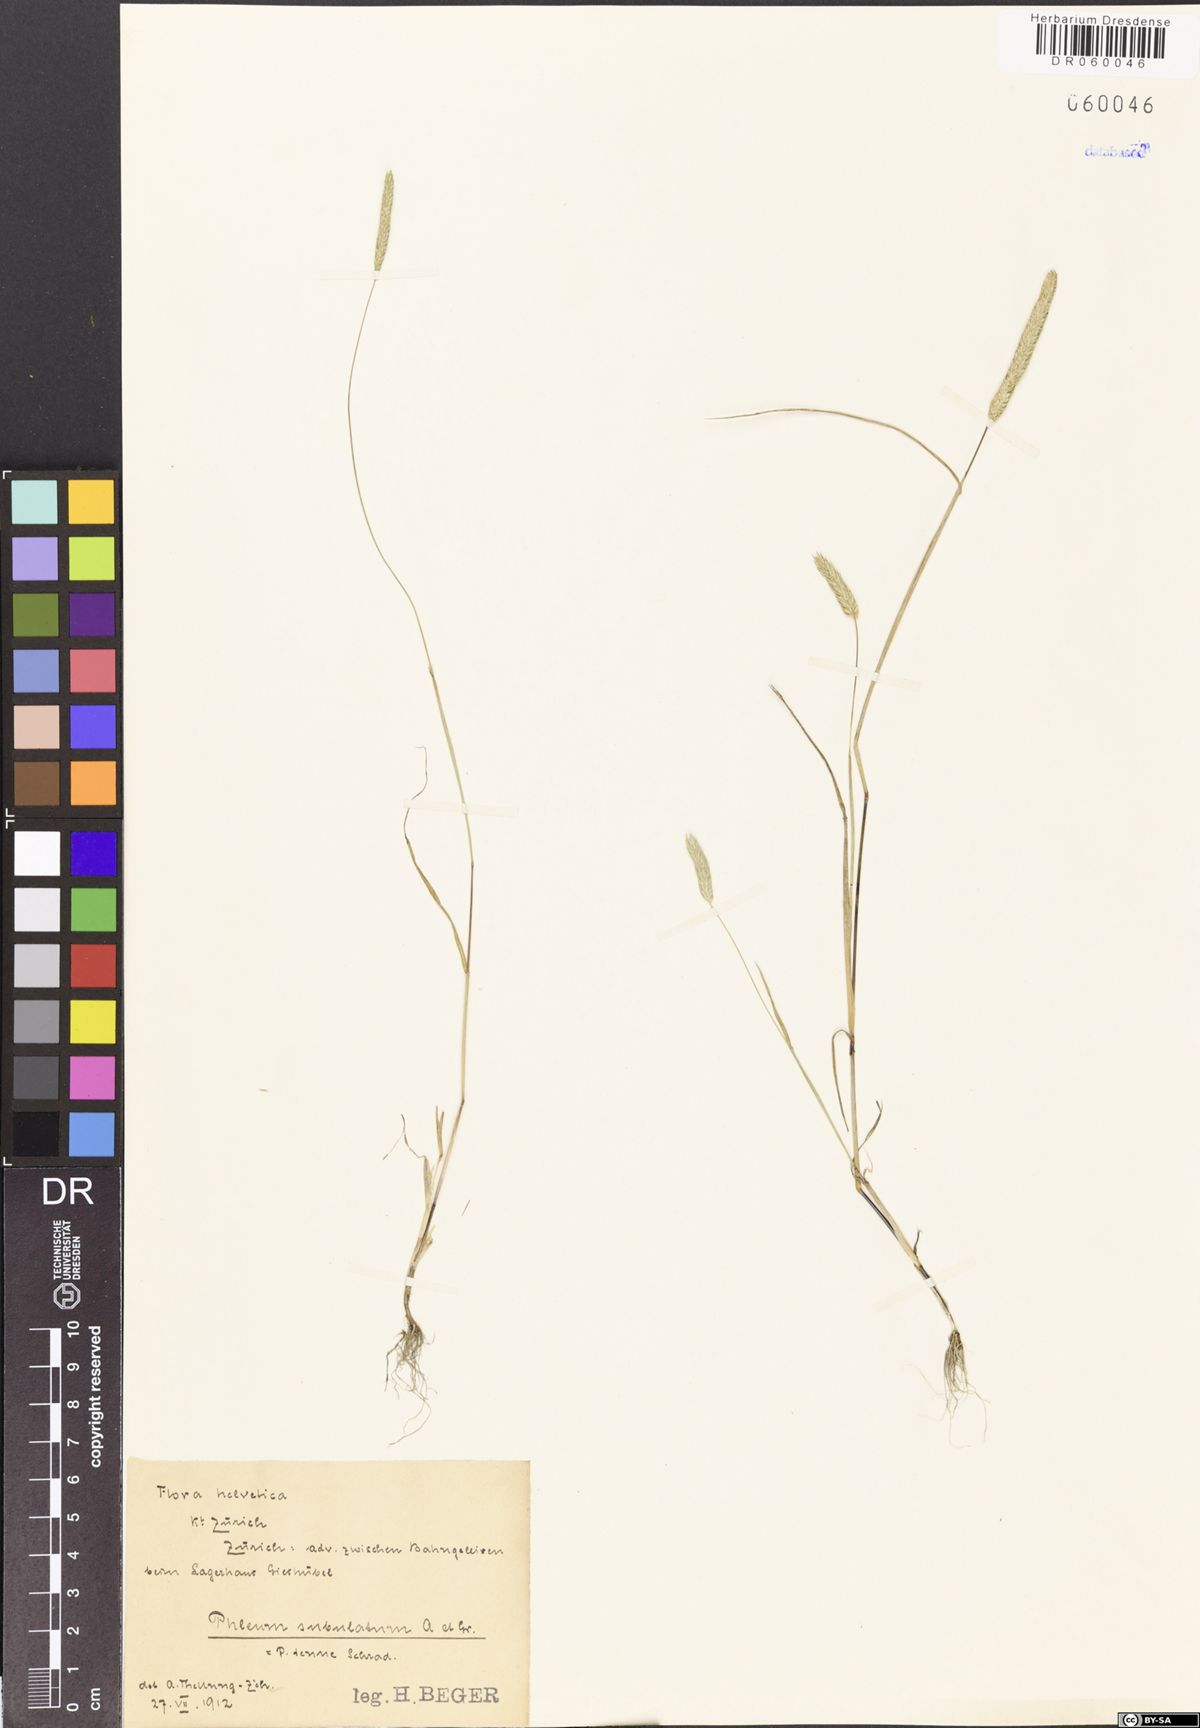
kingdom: Plantae
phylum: Tracheophyta
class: Liliopsida
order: Poales
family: Poaceae
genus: Phleum
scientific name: Phleum subulatum
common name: Italian timothy
